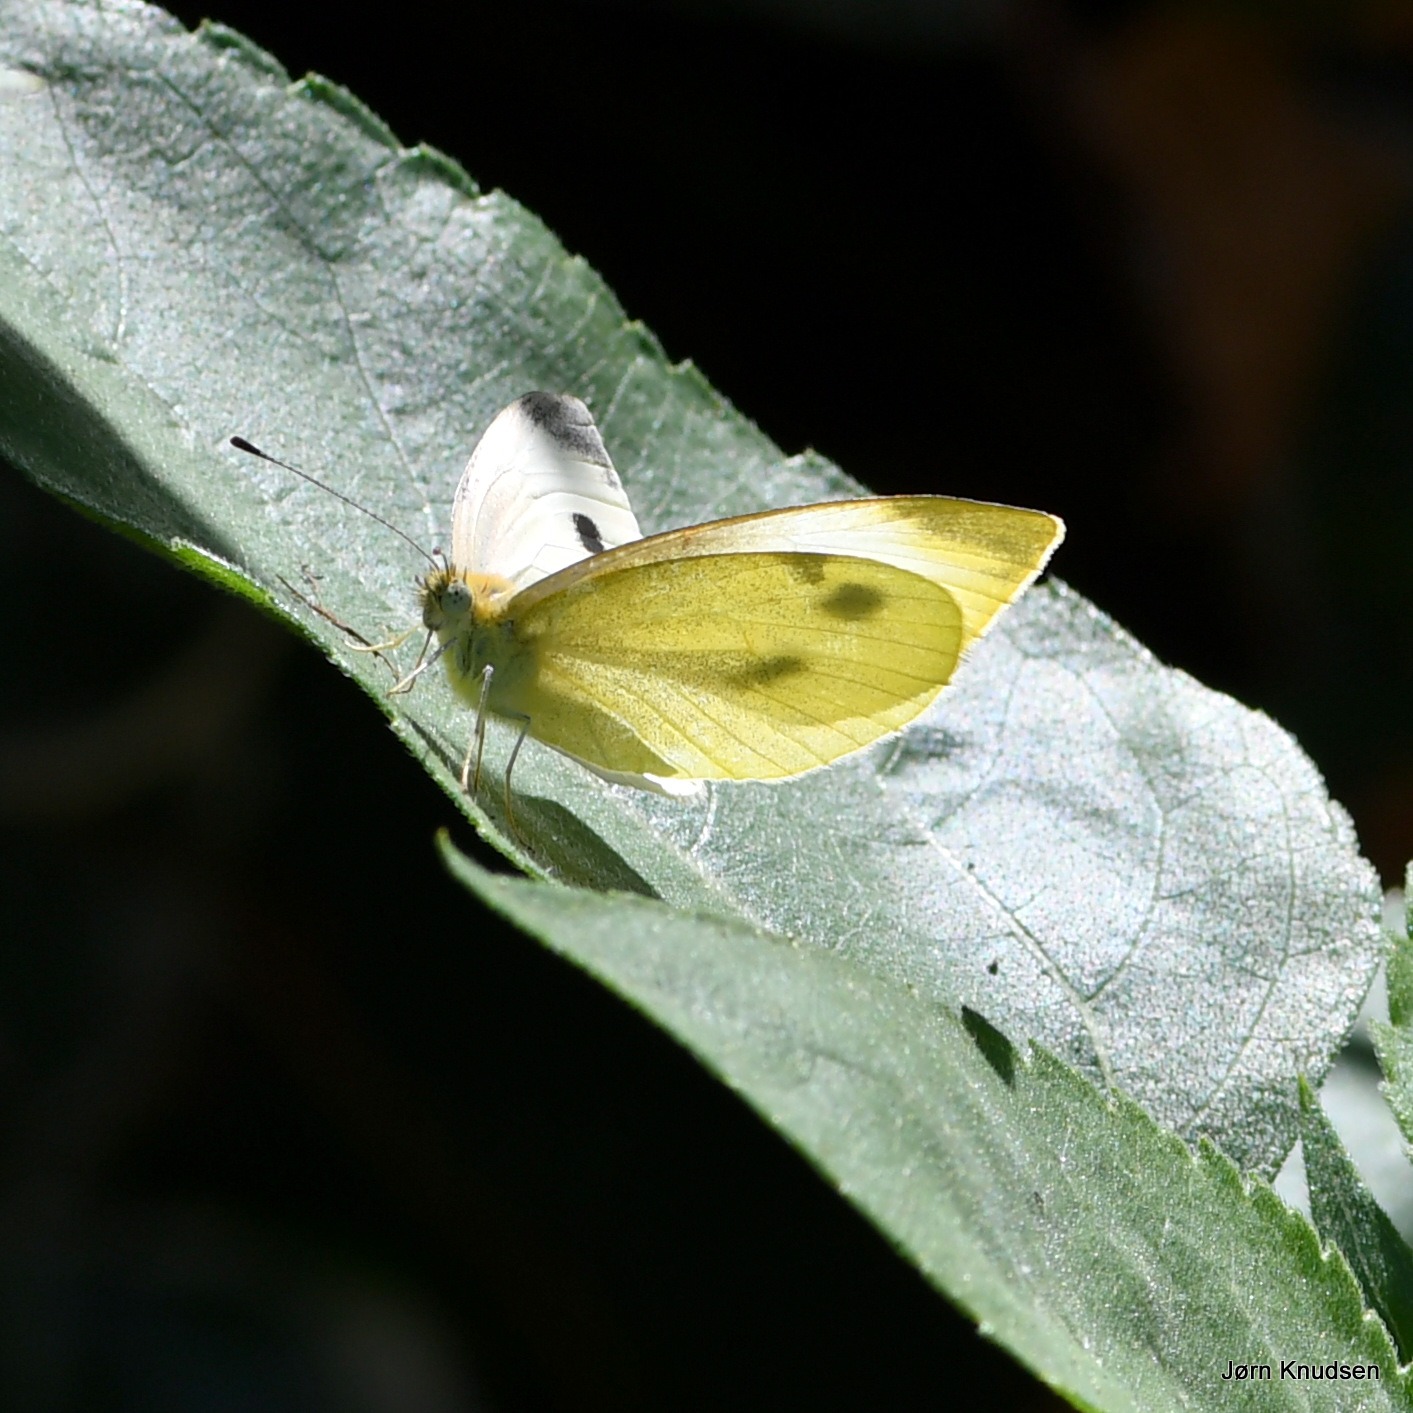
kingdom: Animalia
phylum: Arthropoda
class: Insecta
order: Lepidoptera
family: Pieridae
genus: Pieris
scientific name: Pieris rapae
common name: Lille kålsommerfugl
